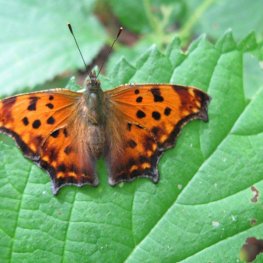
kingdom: Animalia
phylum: Arthropoda
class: Insecta
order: Lepidoptera
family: Nymphalidae
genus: Polygonia
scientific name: Polygonia comma
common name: Eastern Comma
